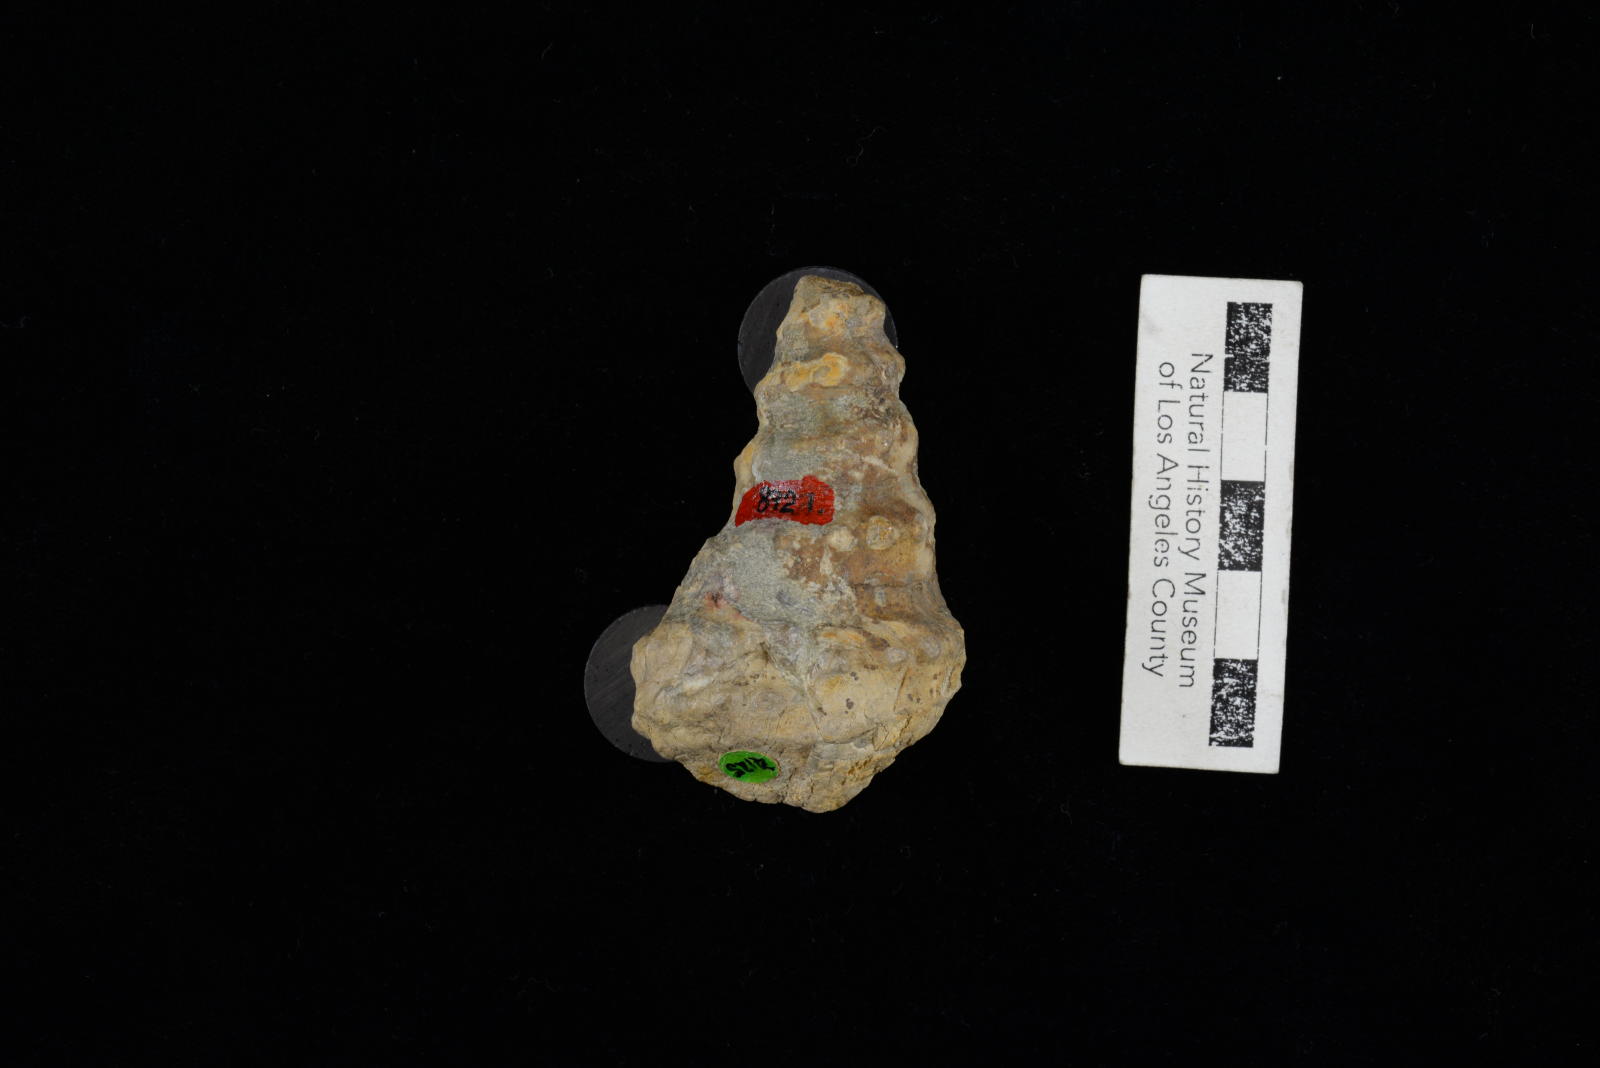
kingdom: Animalia
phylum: Mollusca
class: Gastropoda
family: Cerithiidae
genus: Bullamirifica
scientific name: Bullamirifica Pseudoglauconia ainiktos
